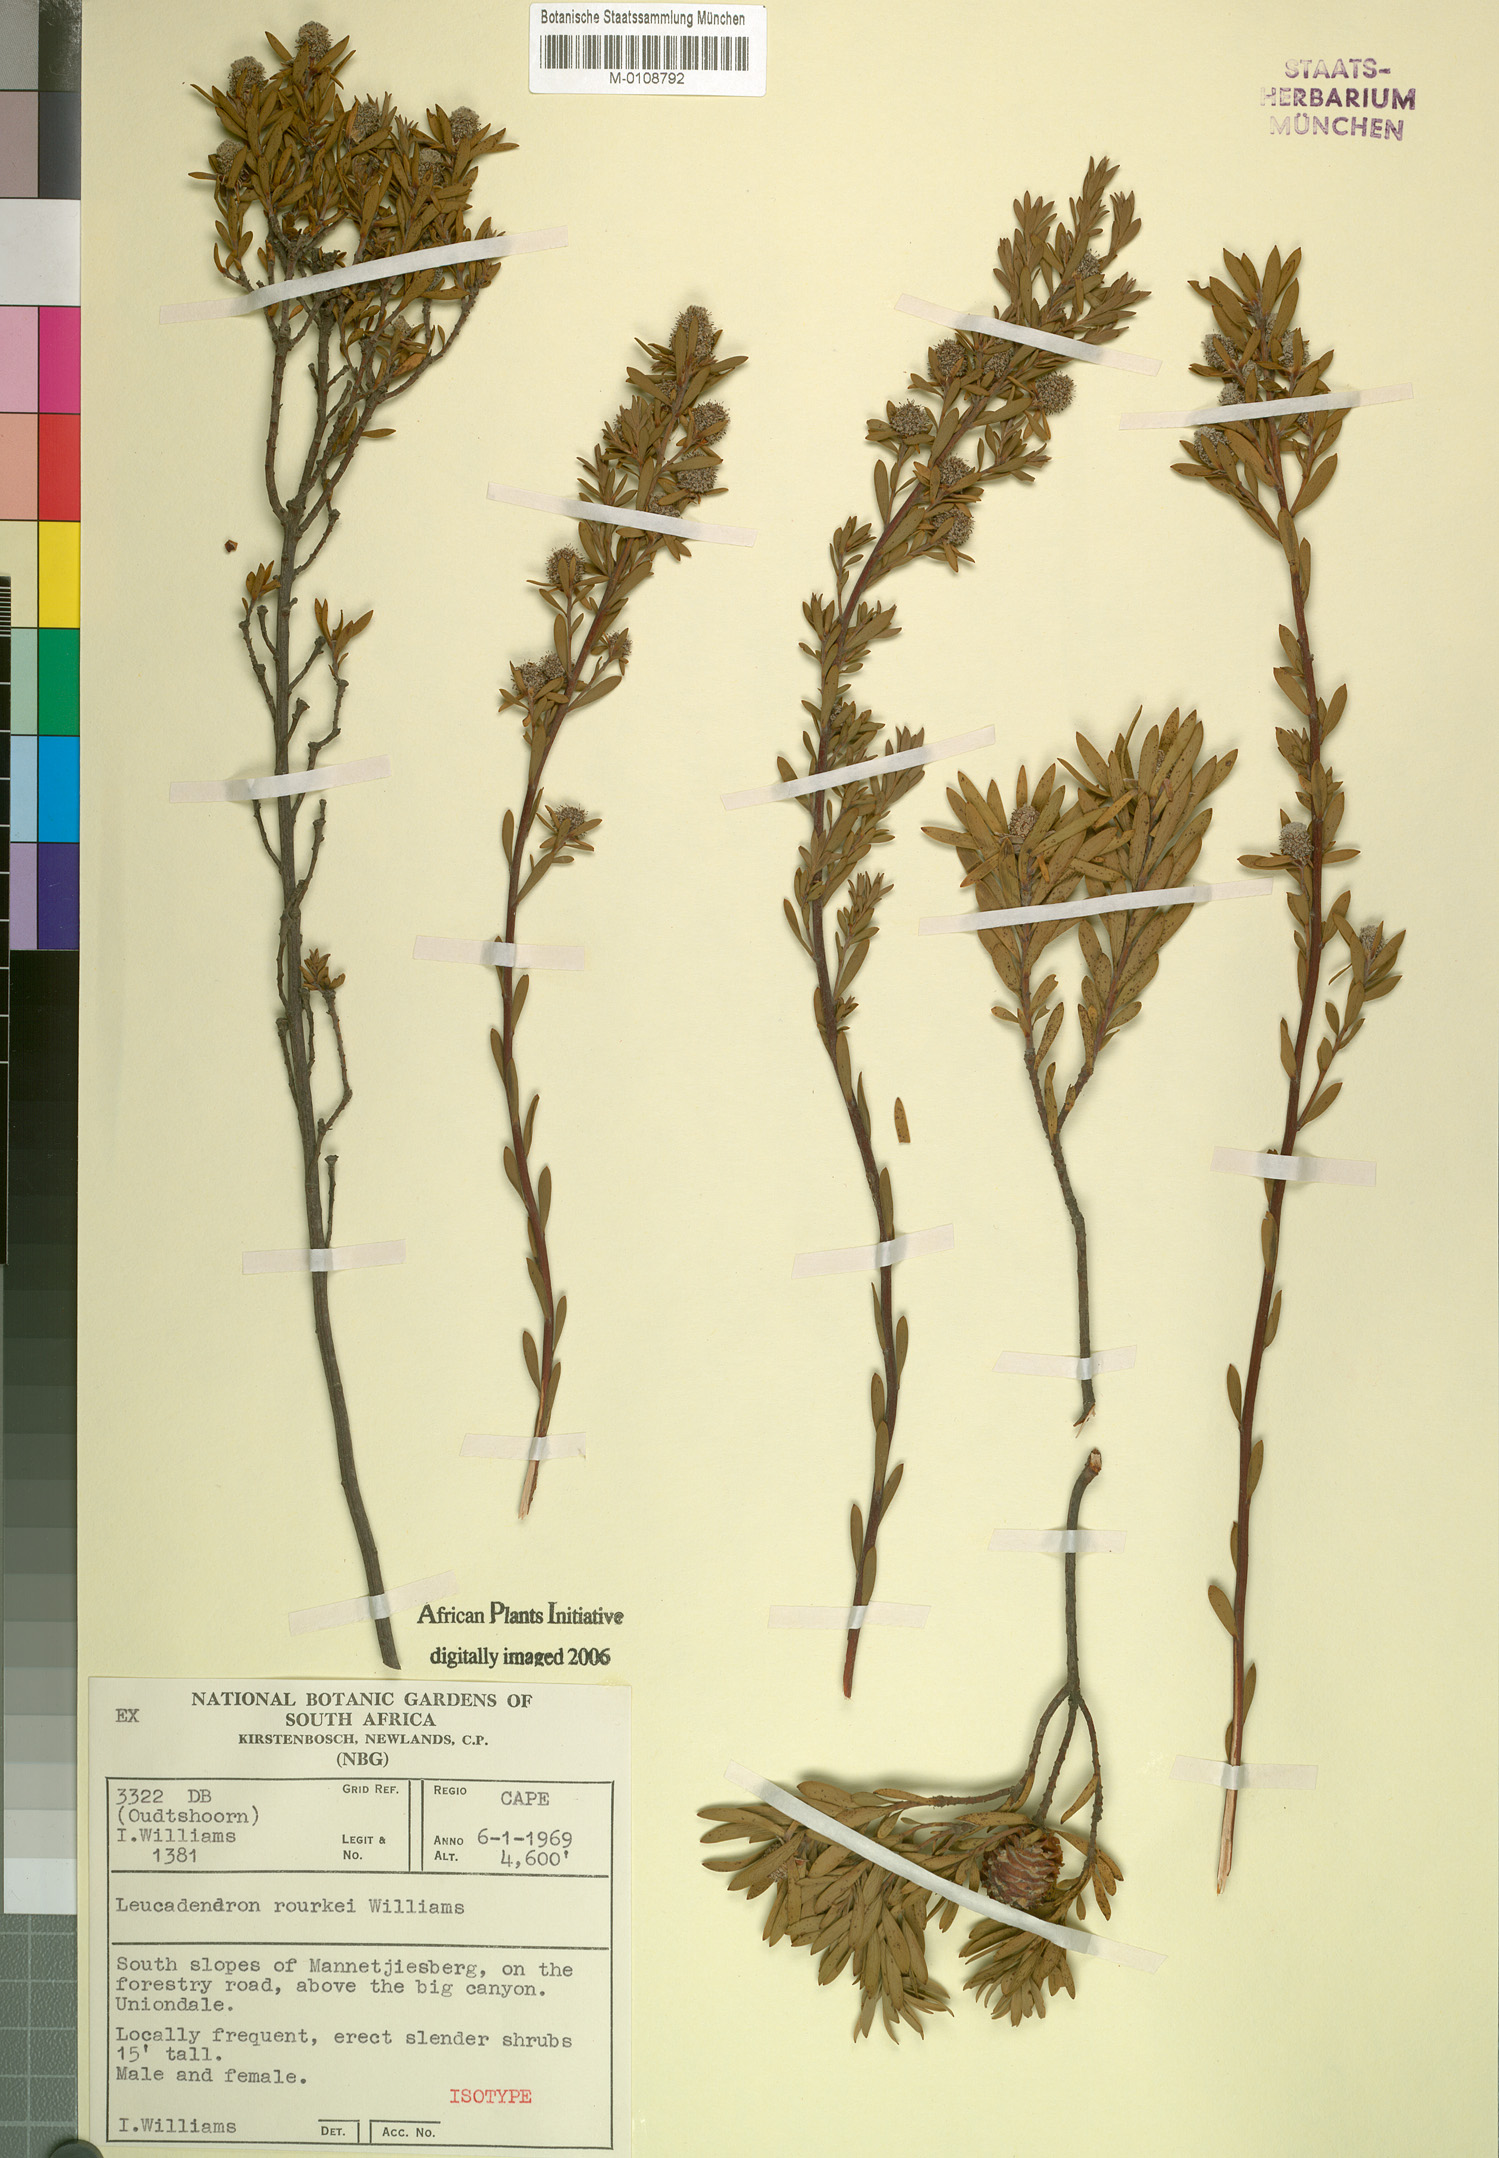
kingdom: Plantae
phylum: Tracheophyta
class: Magnoliopsida
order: Proteales
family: Proteaceae
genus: Leucadendron
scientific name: Leucadendron rourkei
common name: Uniondale conebush
